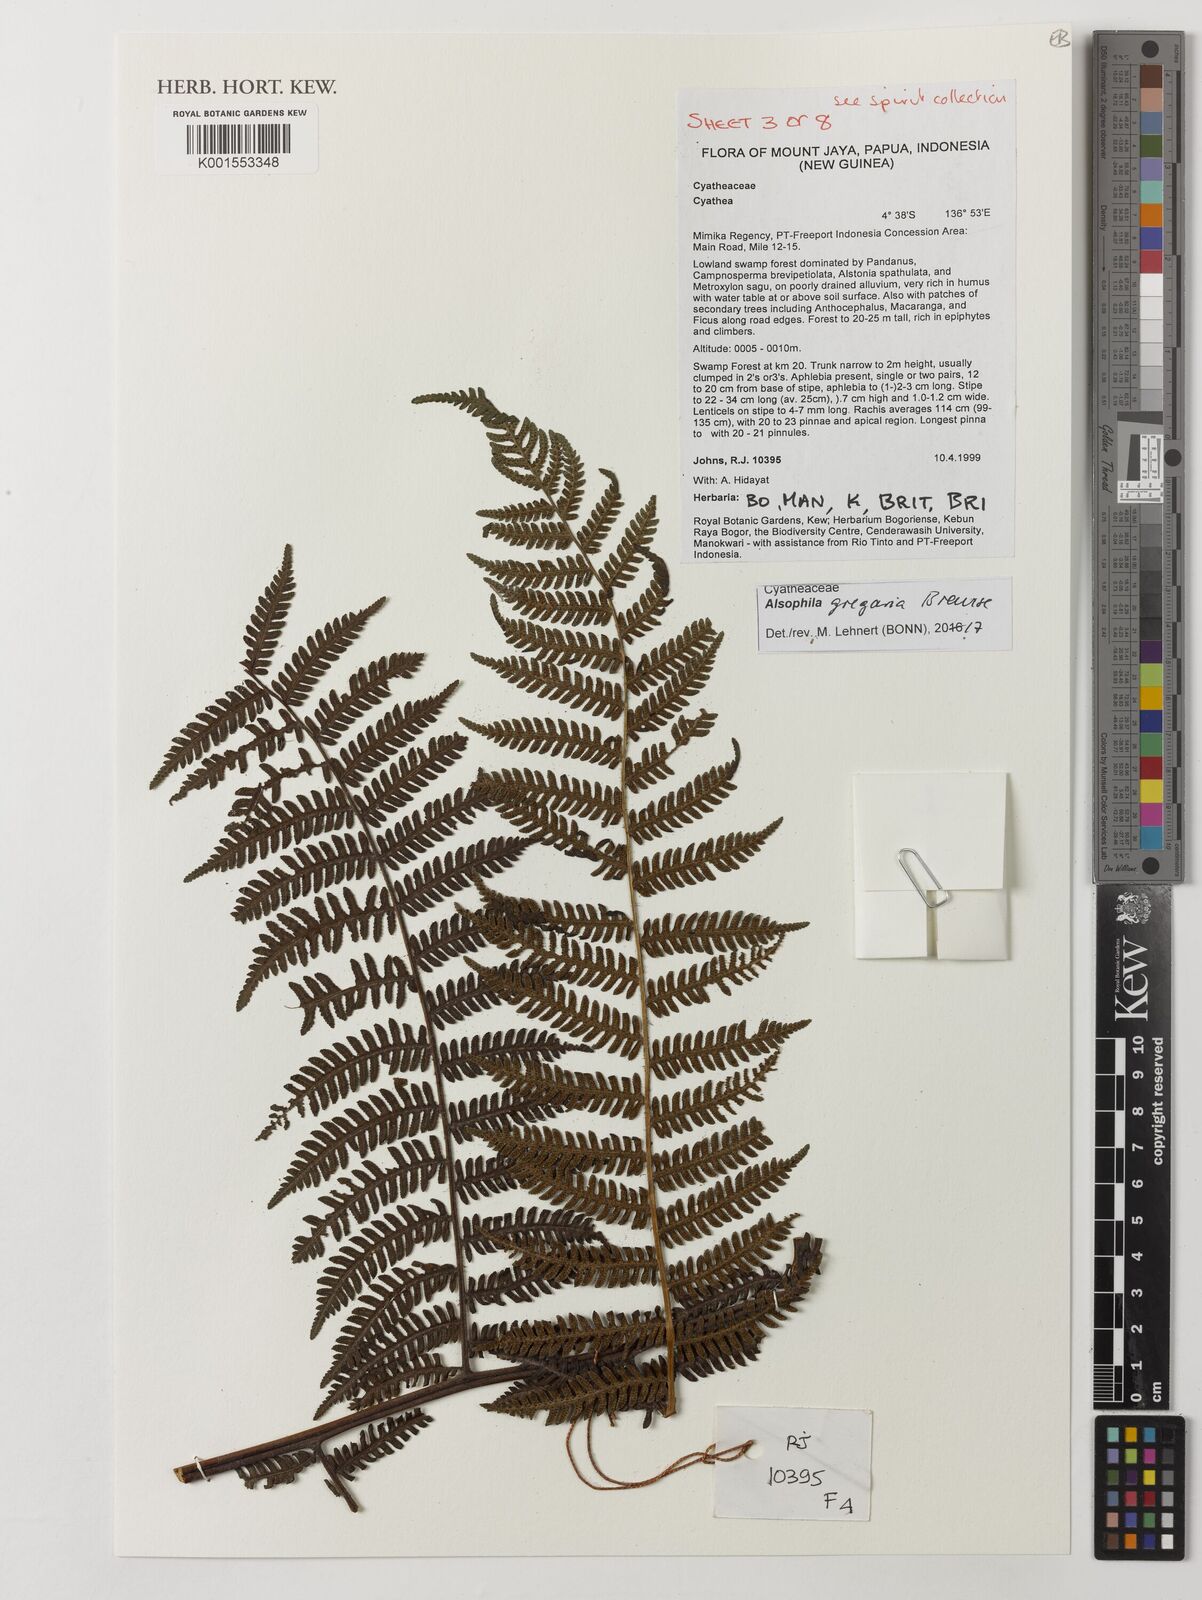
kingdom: Plantae
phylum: Tracheophyta
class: Polypodiopsida
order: Cyatheales
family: Cyatheaceae
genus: Alsophila
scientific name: Alsophila gregaria
